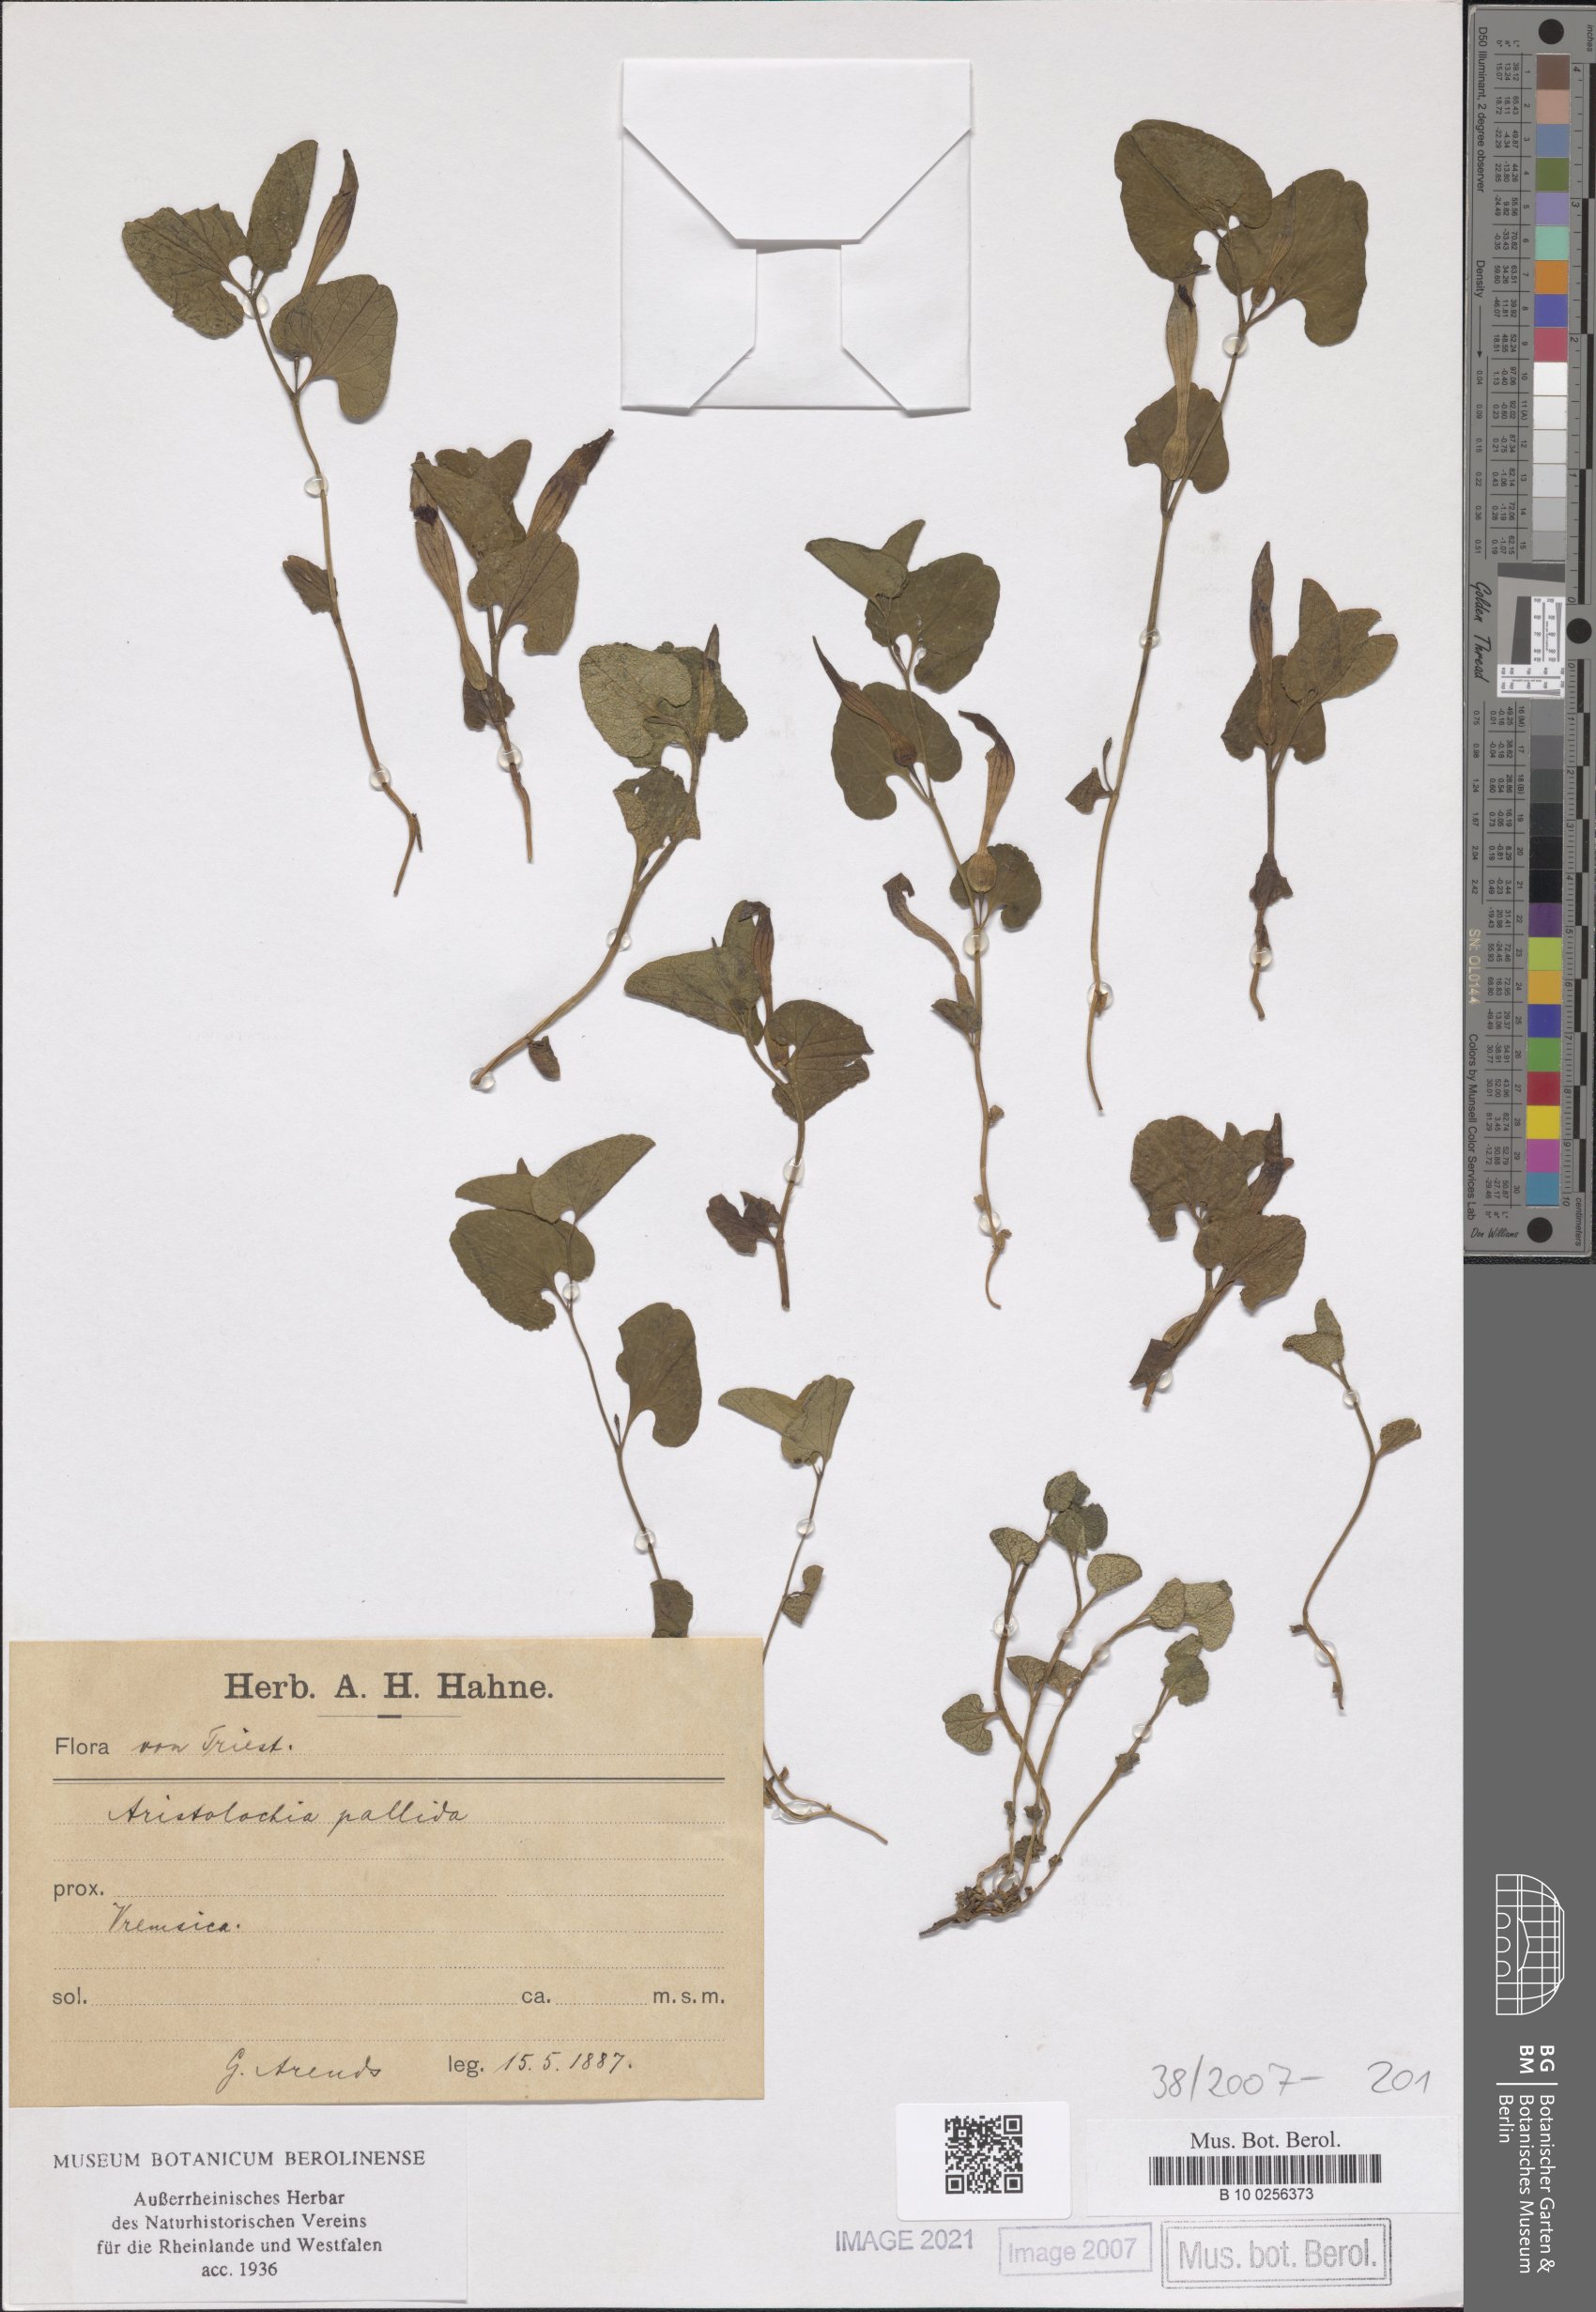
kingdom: Plantae
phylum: Tracheophyta
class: Magnoliopsida
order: Piperales
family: Aristolochiaceae
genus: Aristolochia
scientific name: Aristolochia pallida
